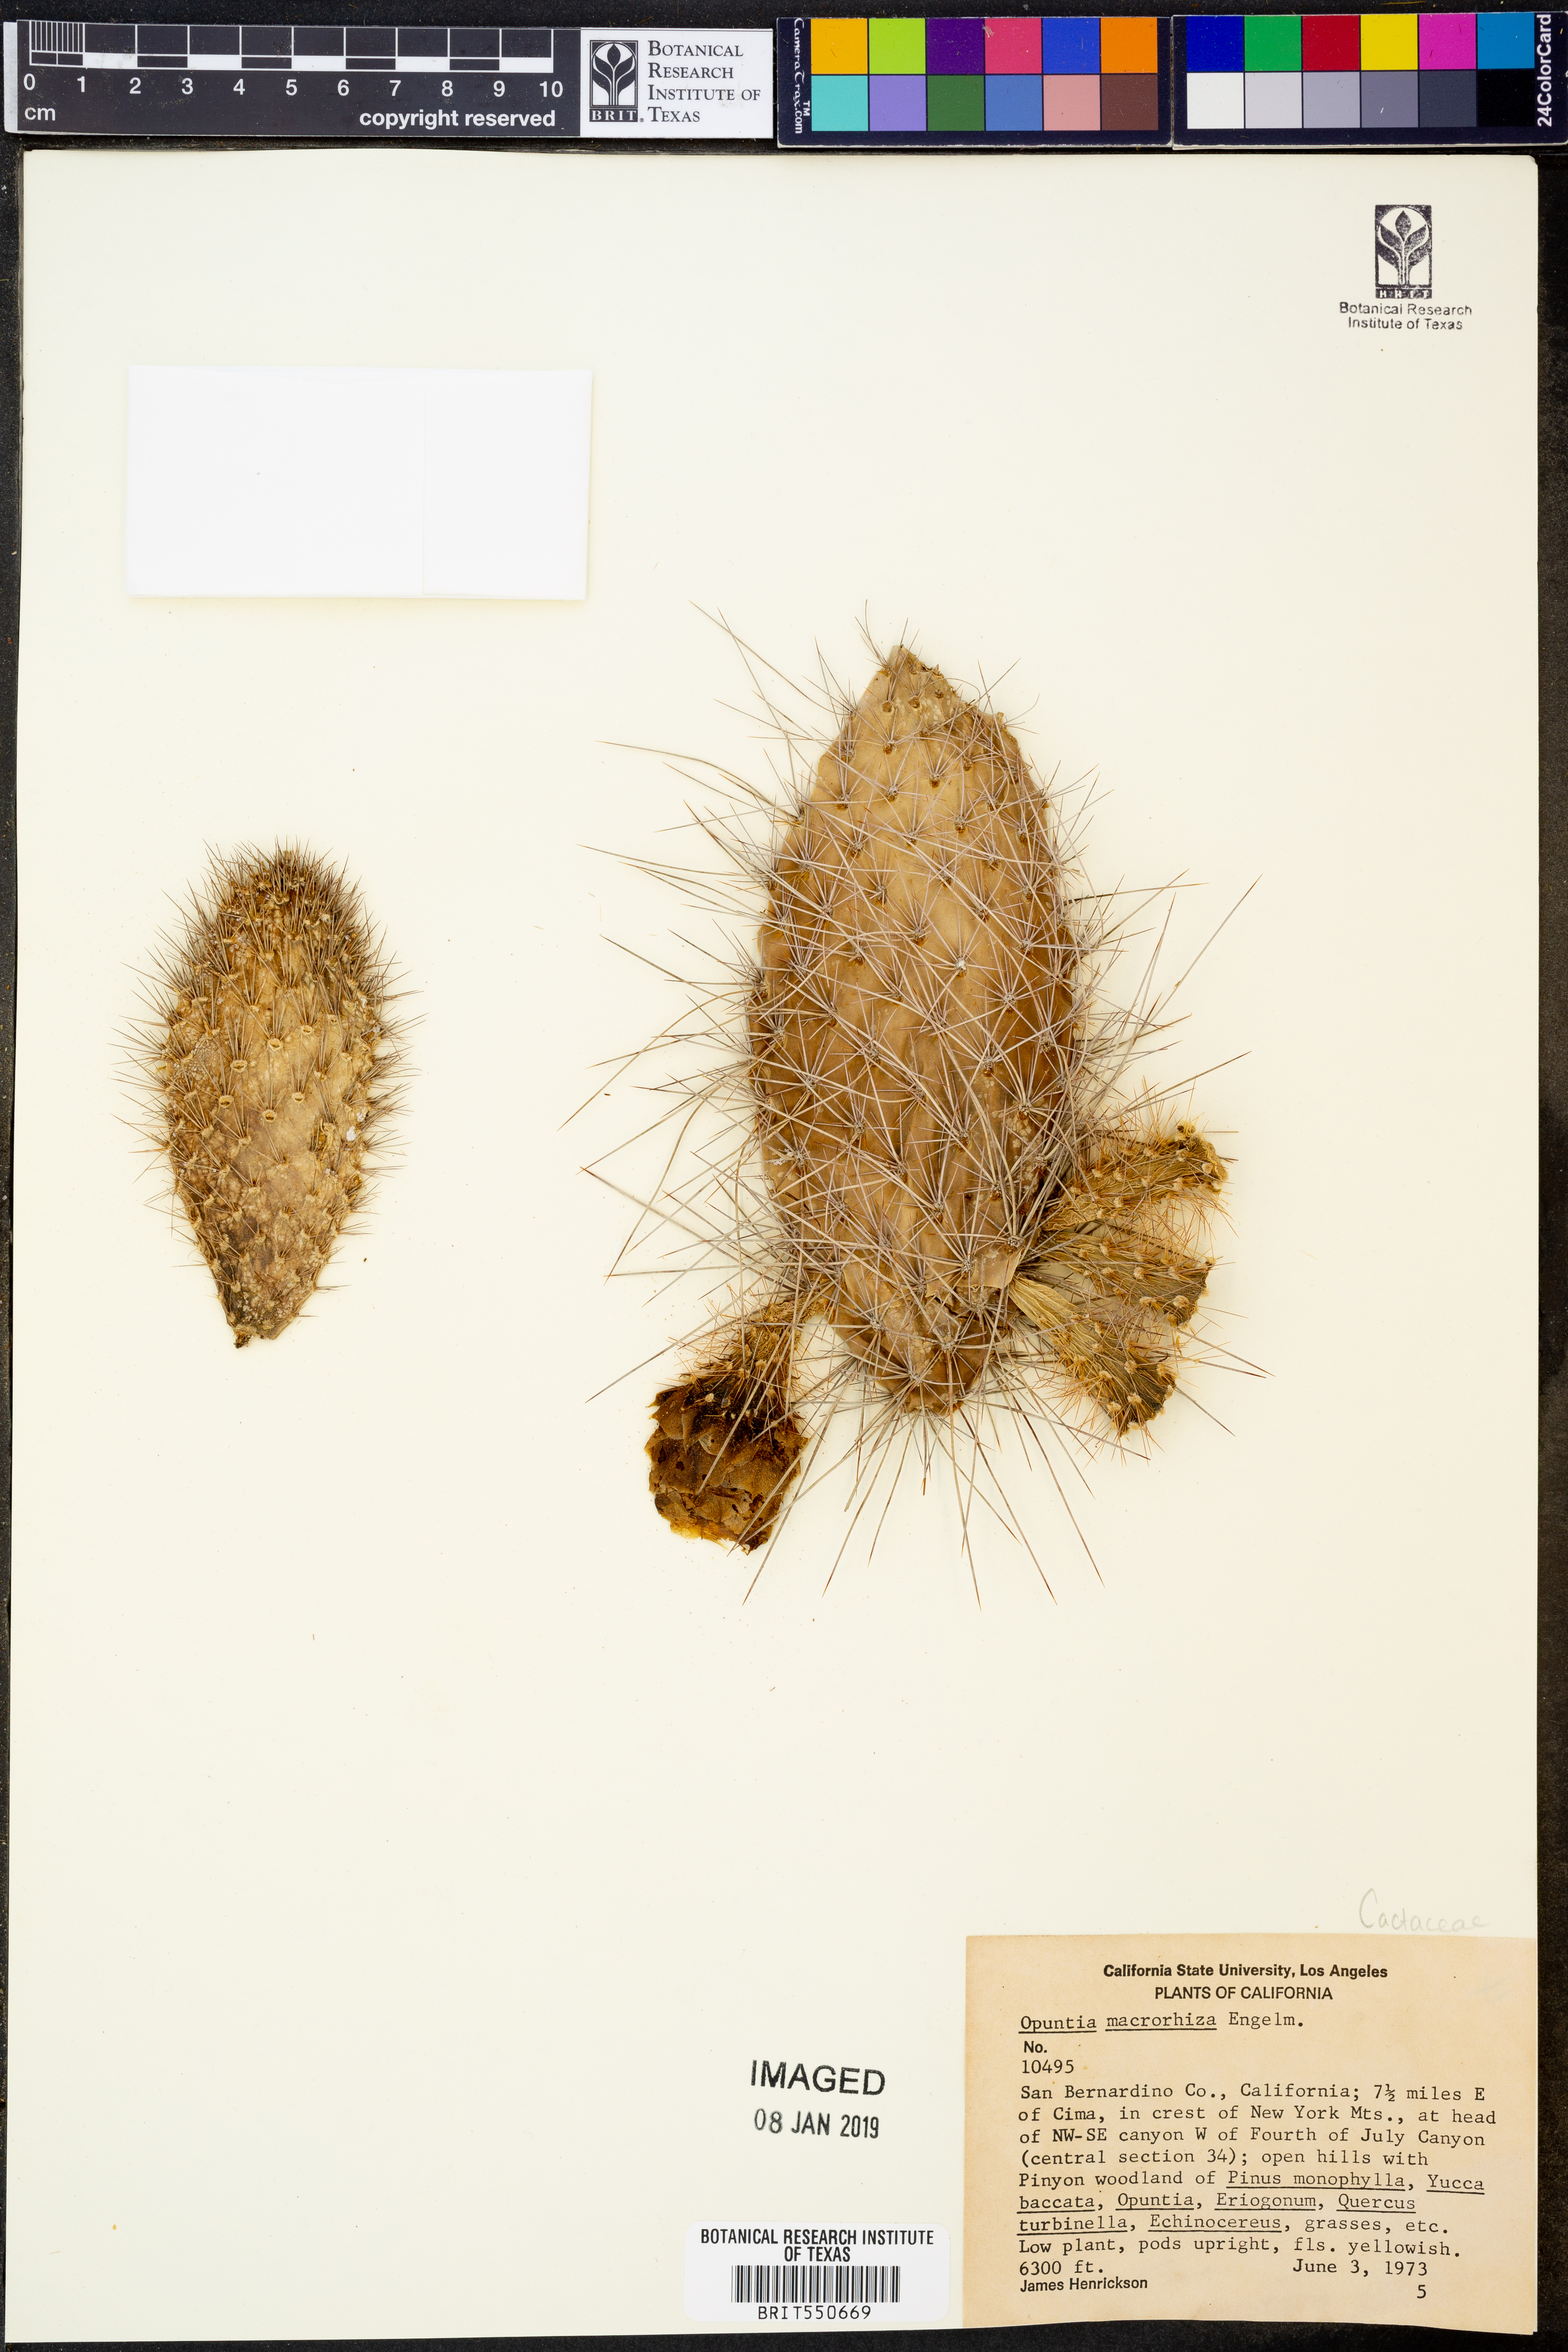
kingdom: Plantae
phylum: Tracheophyta
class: Magnoliopsida
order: Caryophyllales
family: Cactaceae
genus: Opuntia
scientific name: Opuntia macrorhiza
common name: Grassland pricklypear
